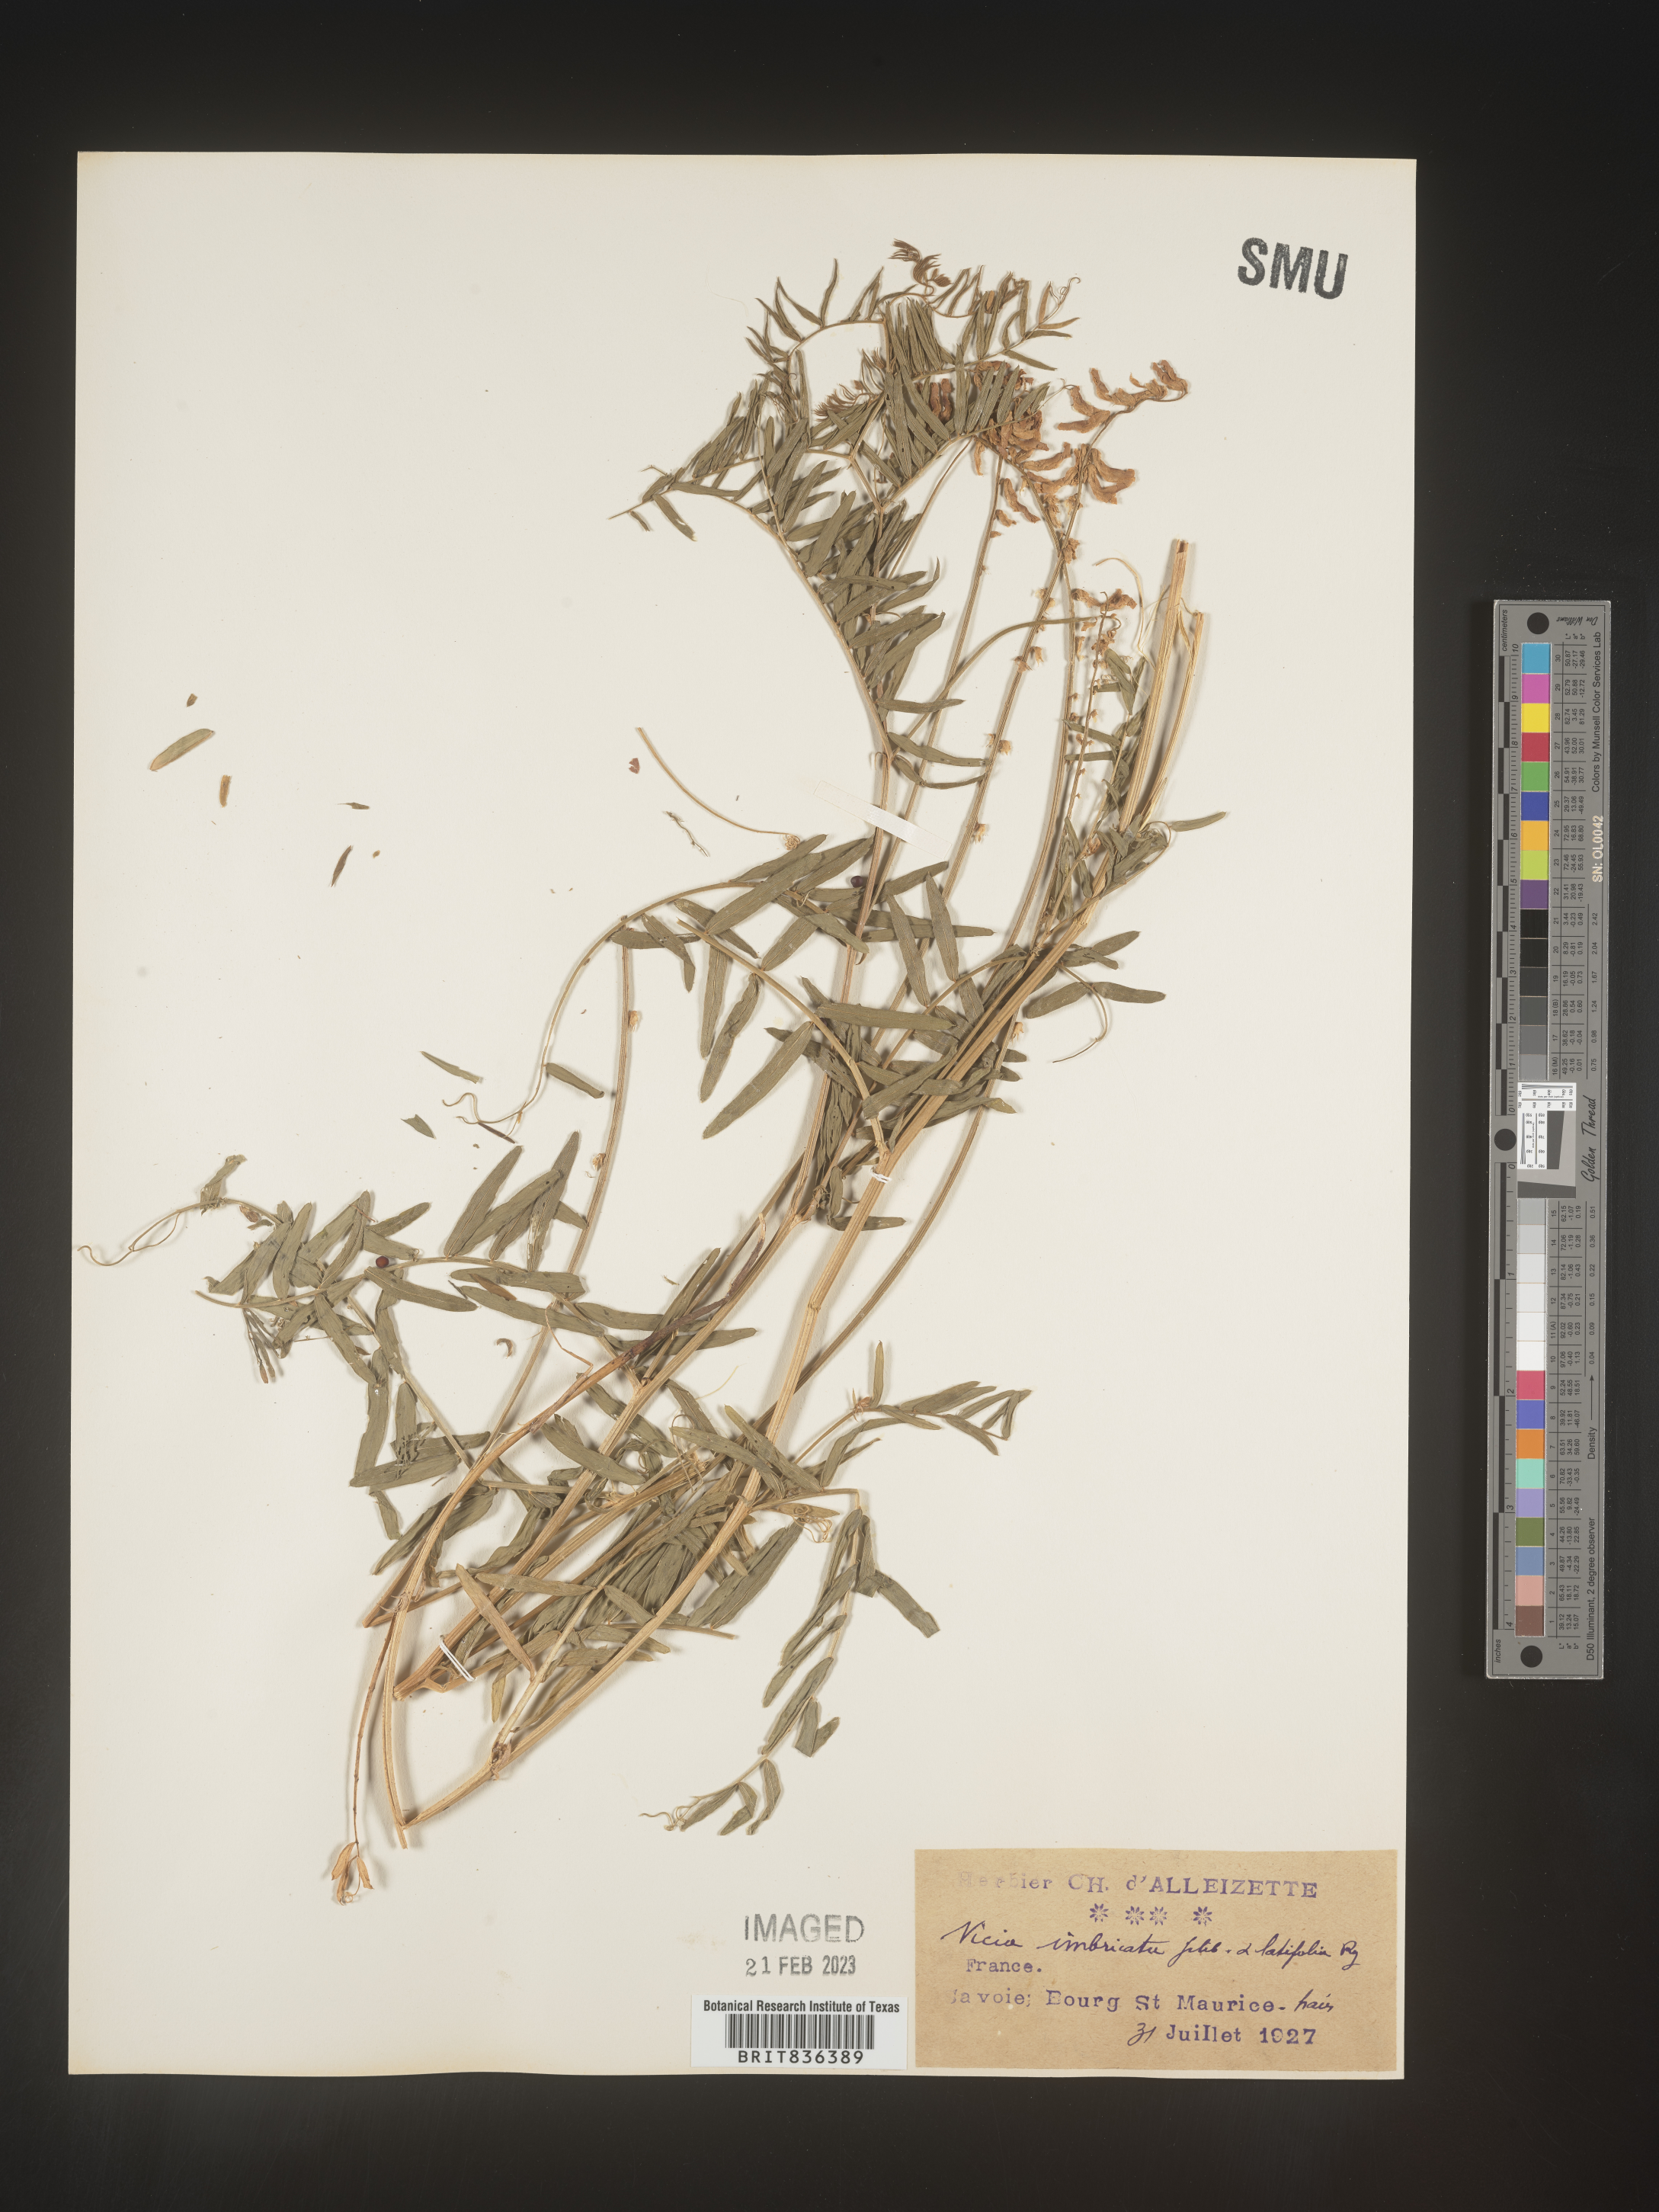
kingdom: Plantae
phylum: Tracheophyta
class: Magnoliopsida
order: Fabales
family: Fabaceae
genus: Vicia
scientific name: Vicia
